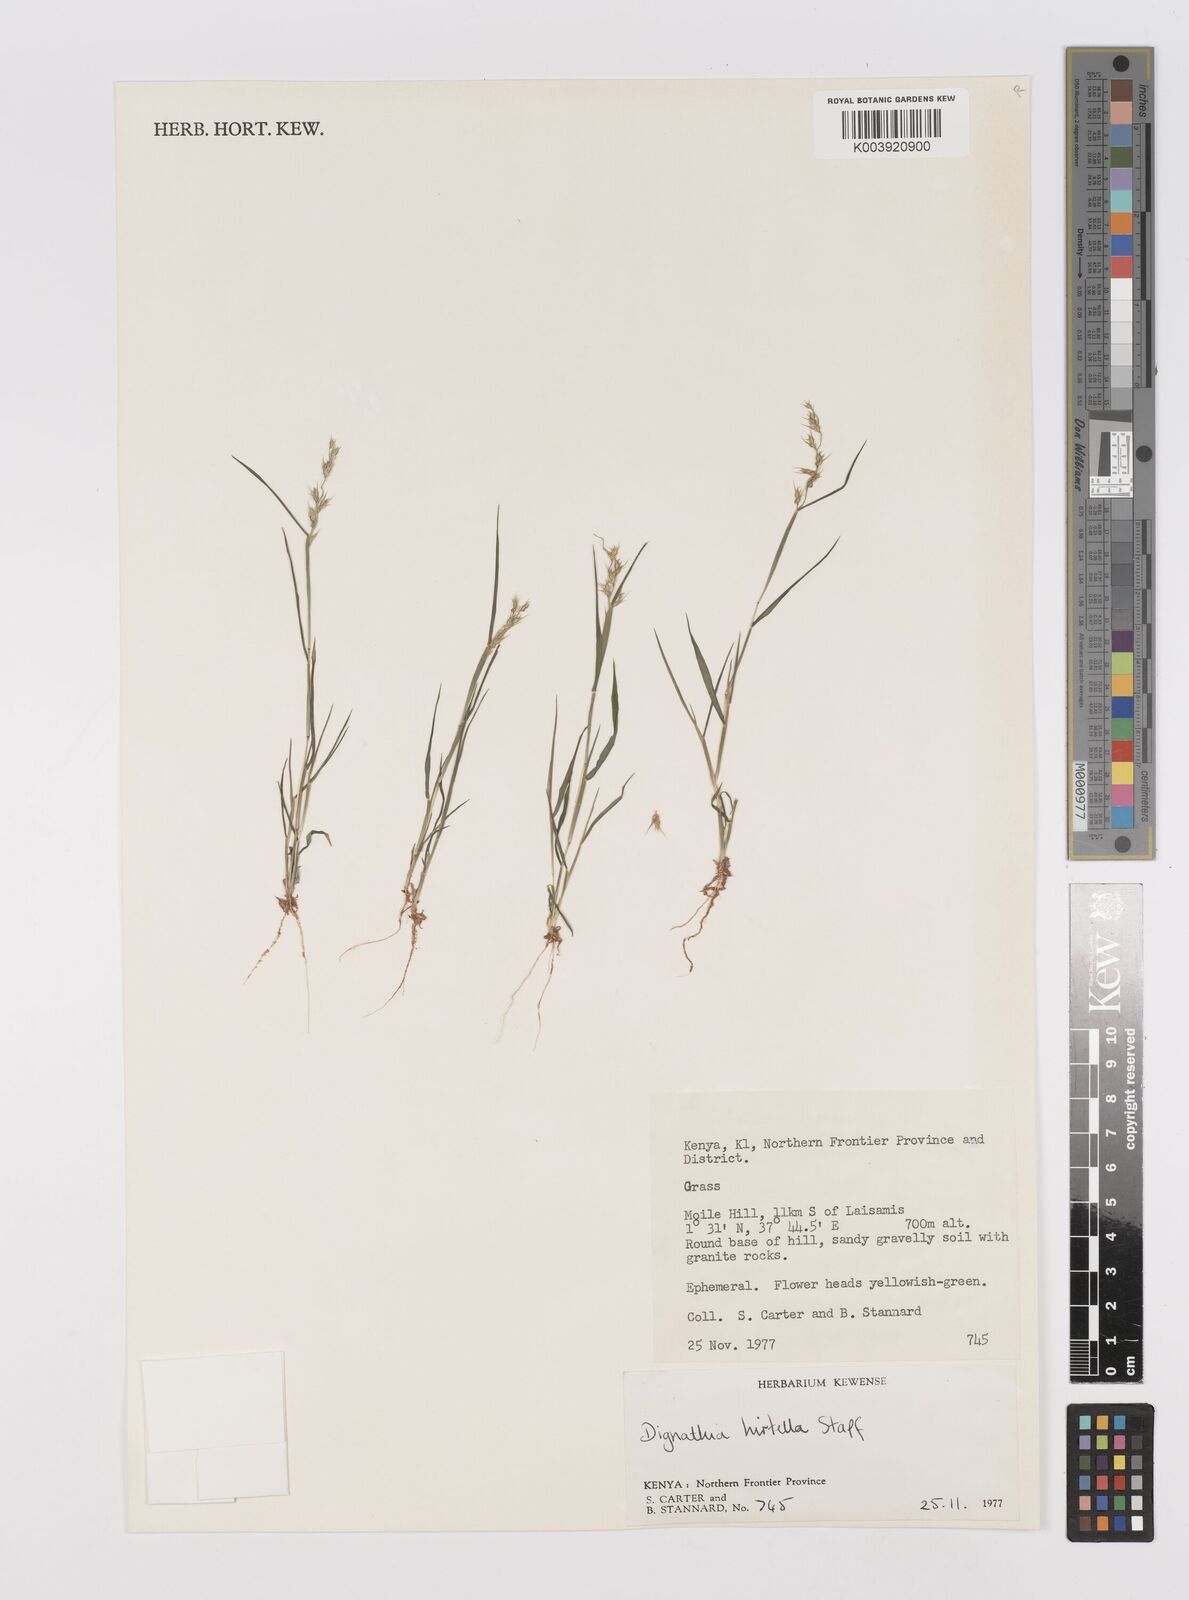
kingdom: Plantae
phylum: Tracheophyta
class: Liliopsida
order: Poales
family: Poaceae
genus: Dignathia
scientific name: Dignathia hirtella
